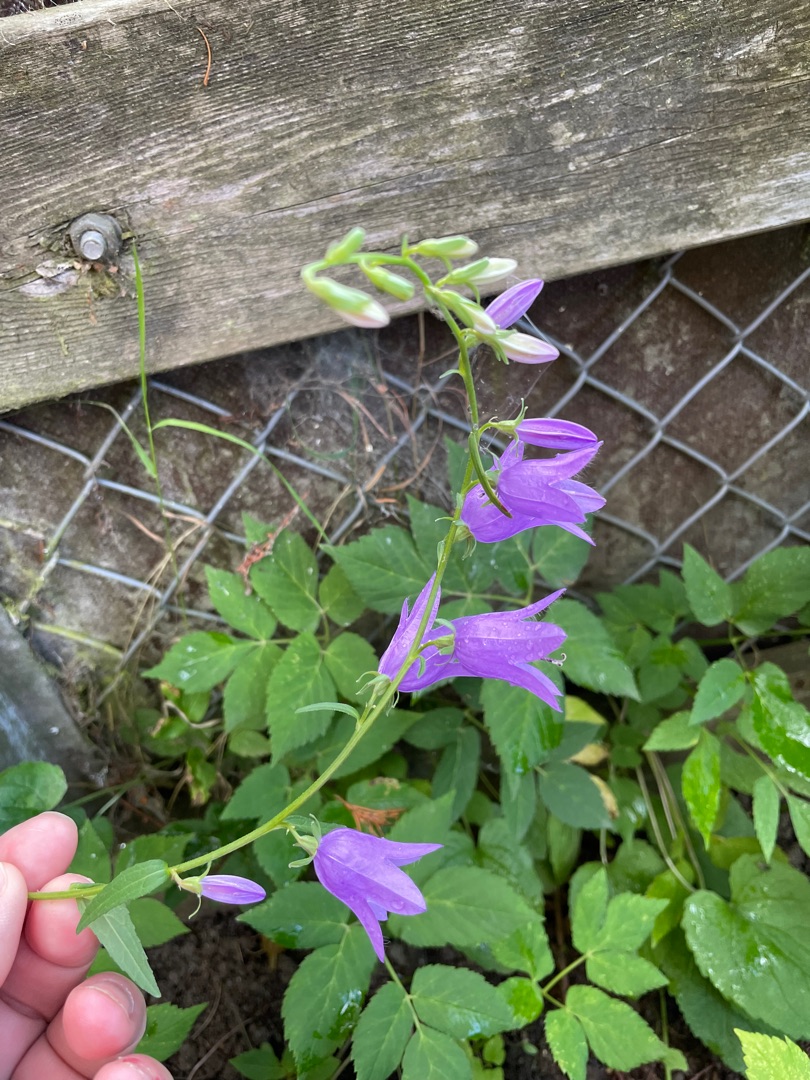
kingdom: Plantae
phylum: Tracheophyta
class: Magnoliopsida
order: Asterales
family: Campanulaceae
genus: Campanula
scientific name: Campanula rapunculoides
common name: Ensidig klokke
